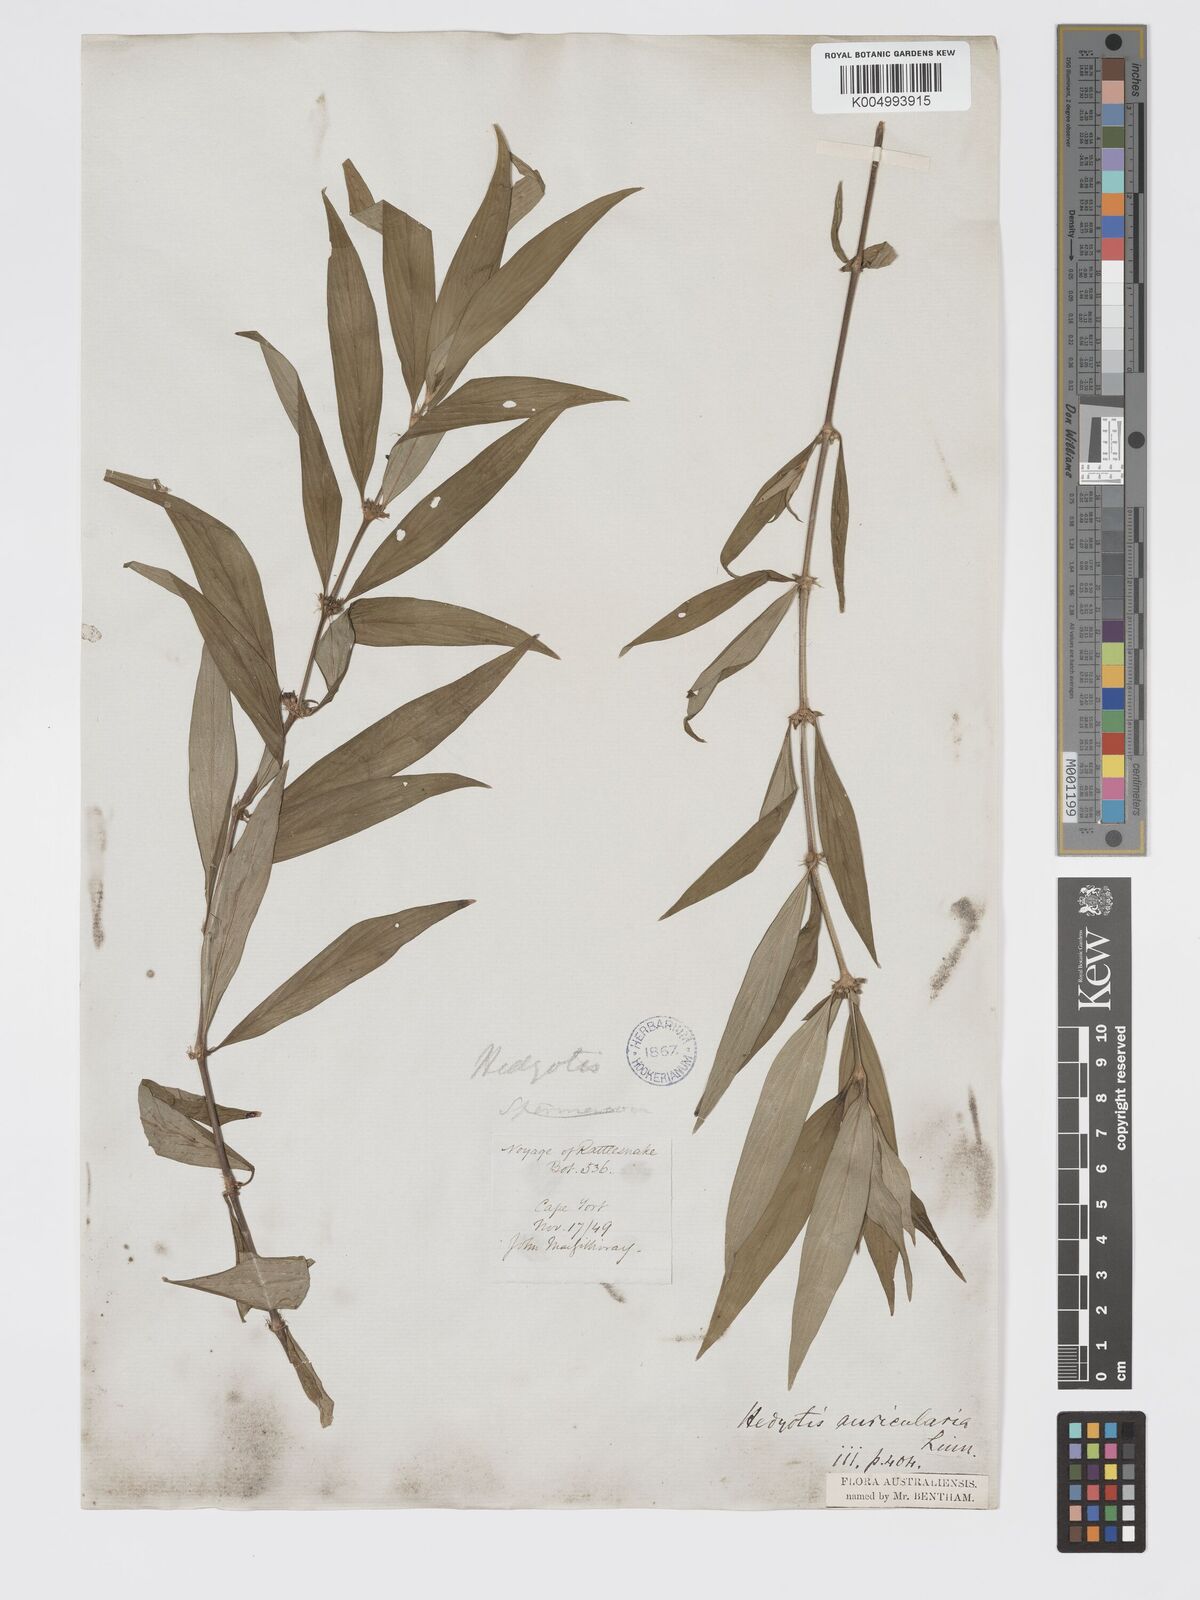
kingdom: Plantae
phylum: Tracheophyta
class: Magnoliopsida
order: Gentianales
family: Rubiaceae
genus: Exallage
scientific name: Exallage lapeyrousei
